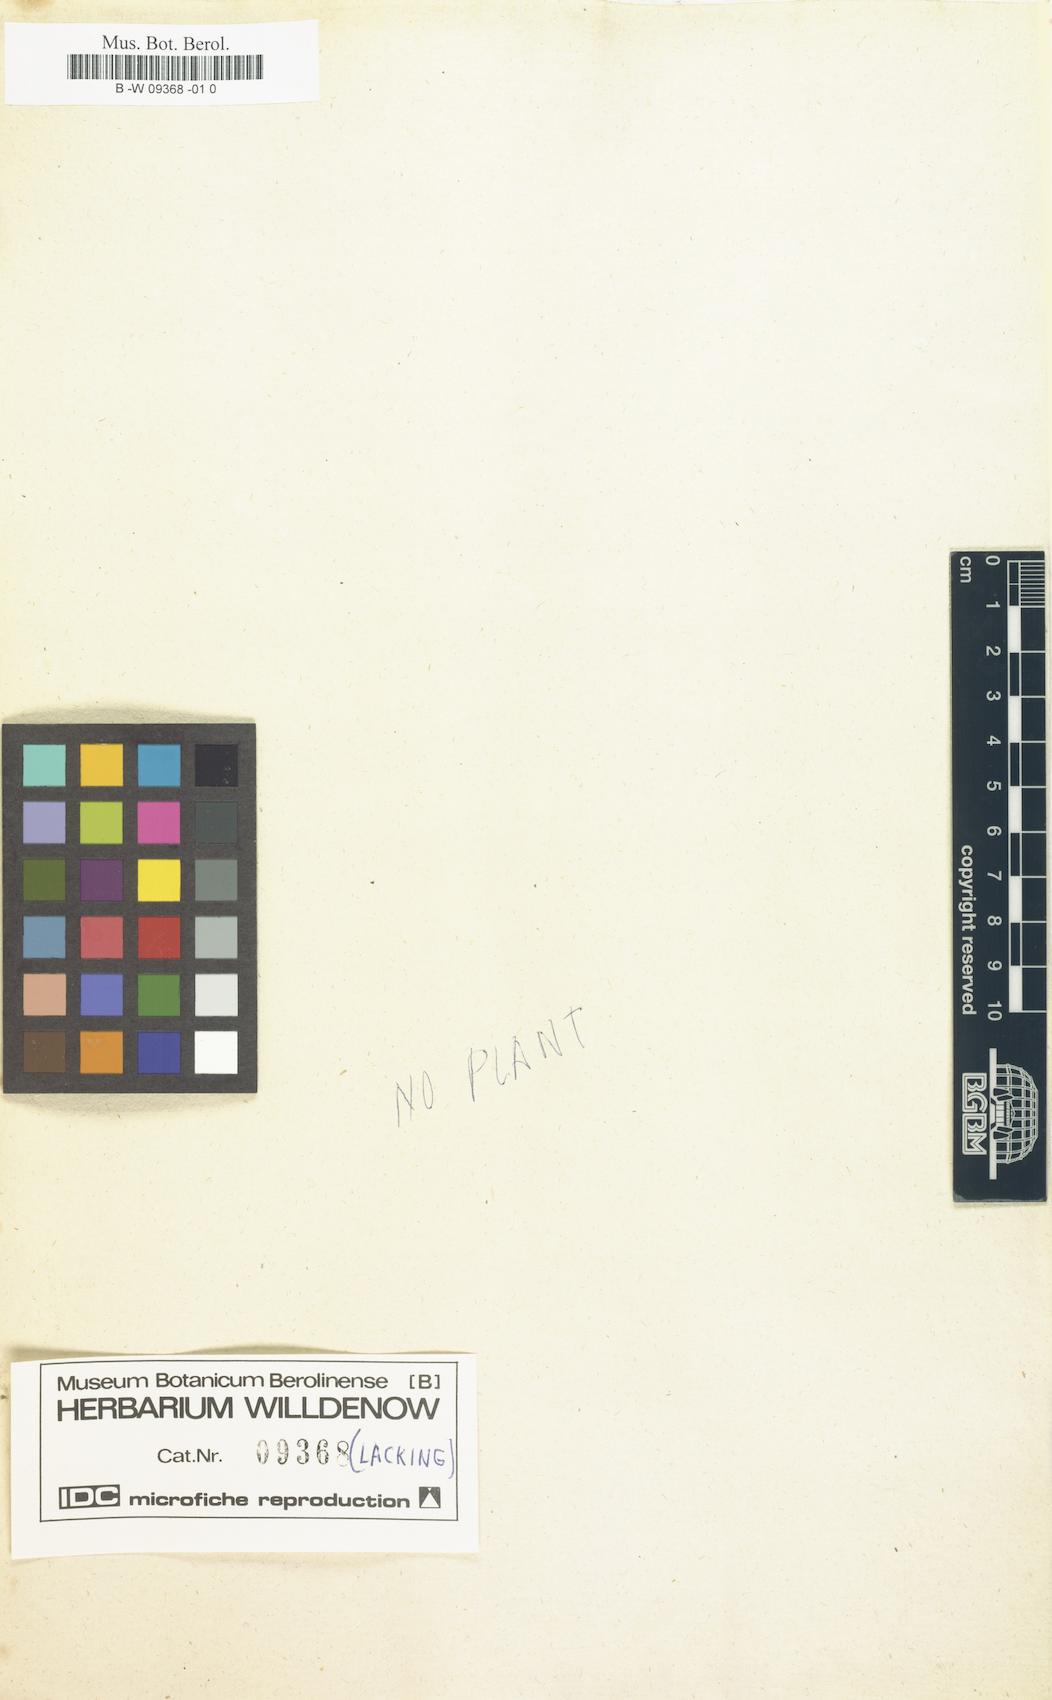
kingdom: Plantae
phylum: Tracheophyta
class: Magnoliopsida
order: Malpighiales
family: Euphorbiaceae
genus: Euphorbia
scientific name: Euphorbia esula
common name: Leafy spurge
